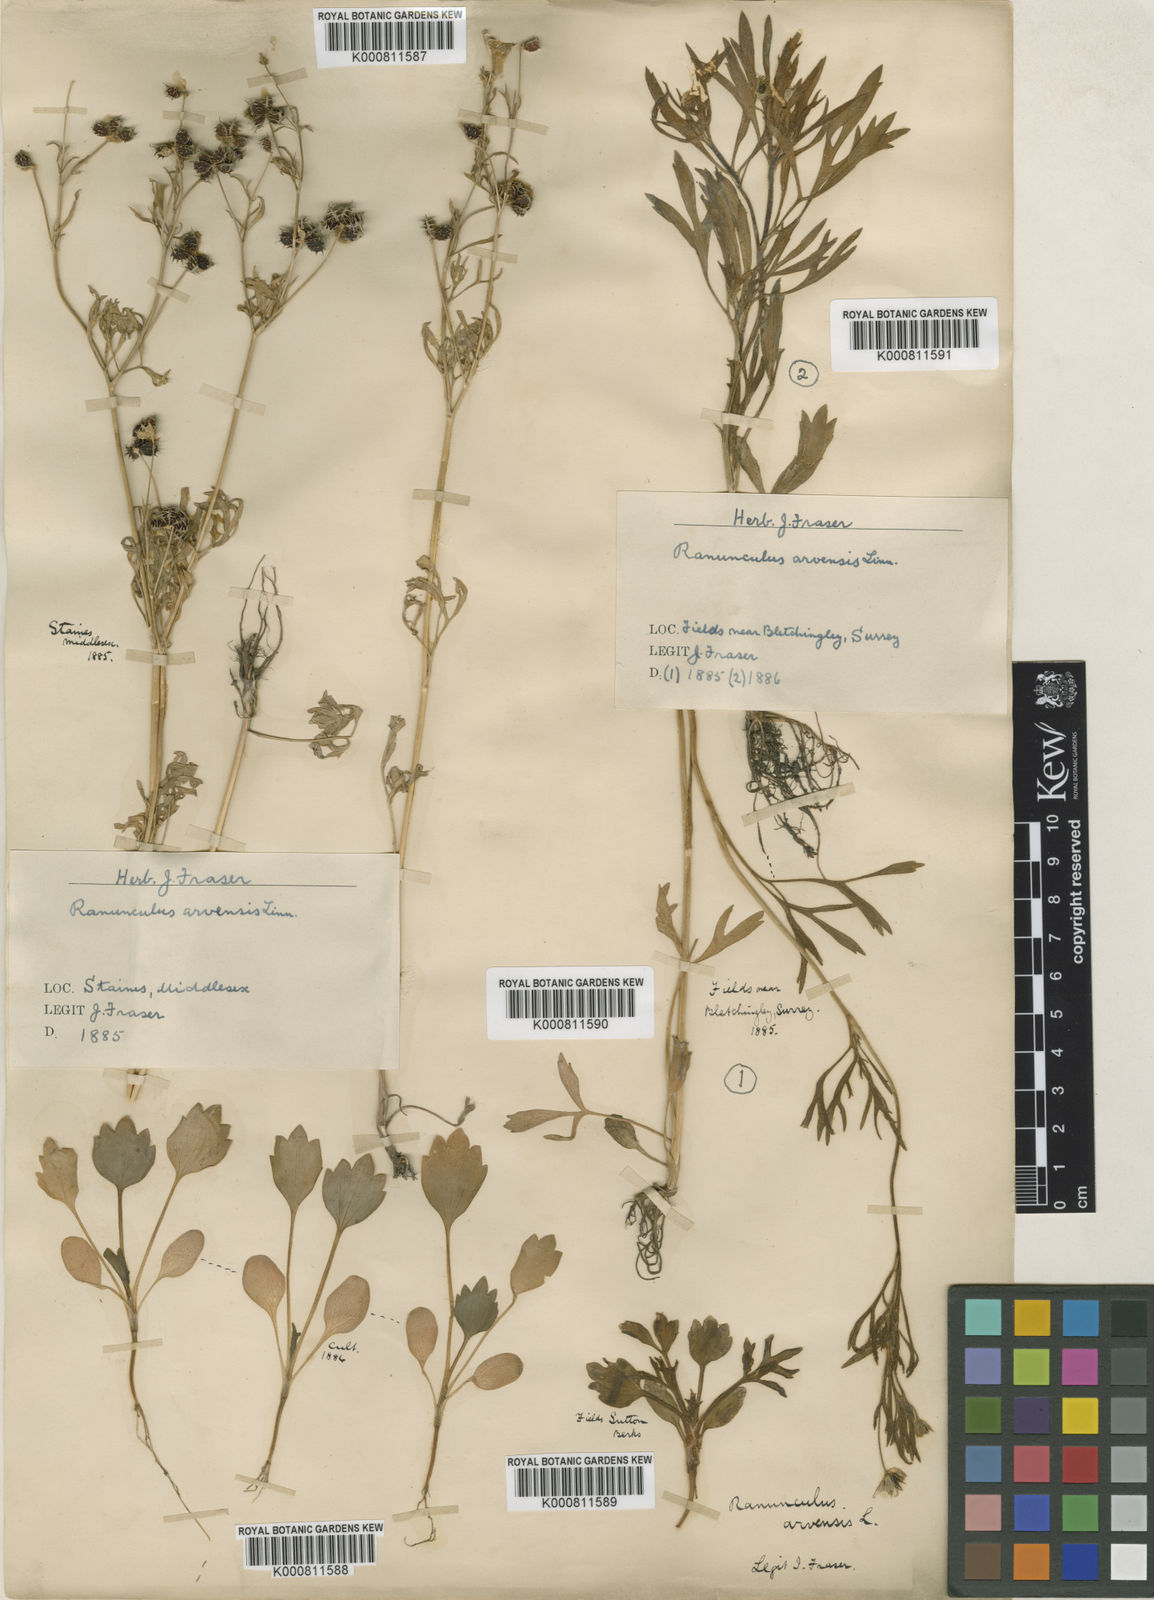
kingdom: Plantae
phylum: Tracheophyta
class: Magnoliopsida
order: Ranunculales
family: Ranunculaceae
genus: Ranunculus
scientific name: Ranunculus arvensis
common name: Corn buttercup
